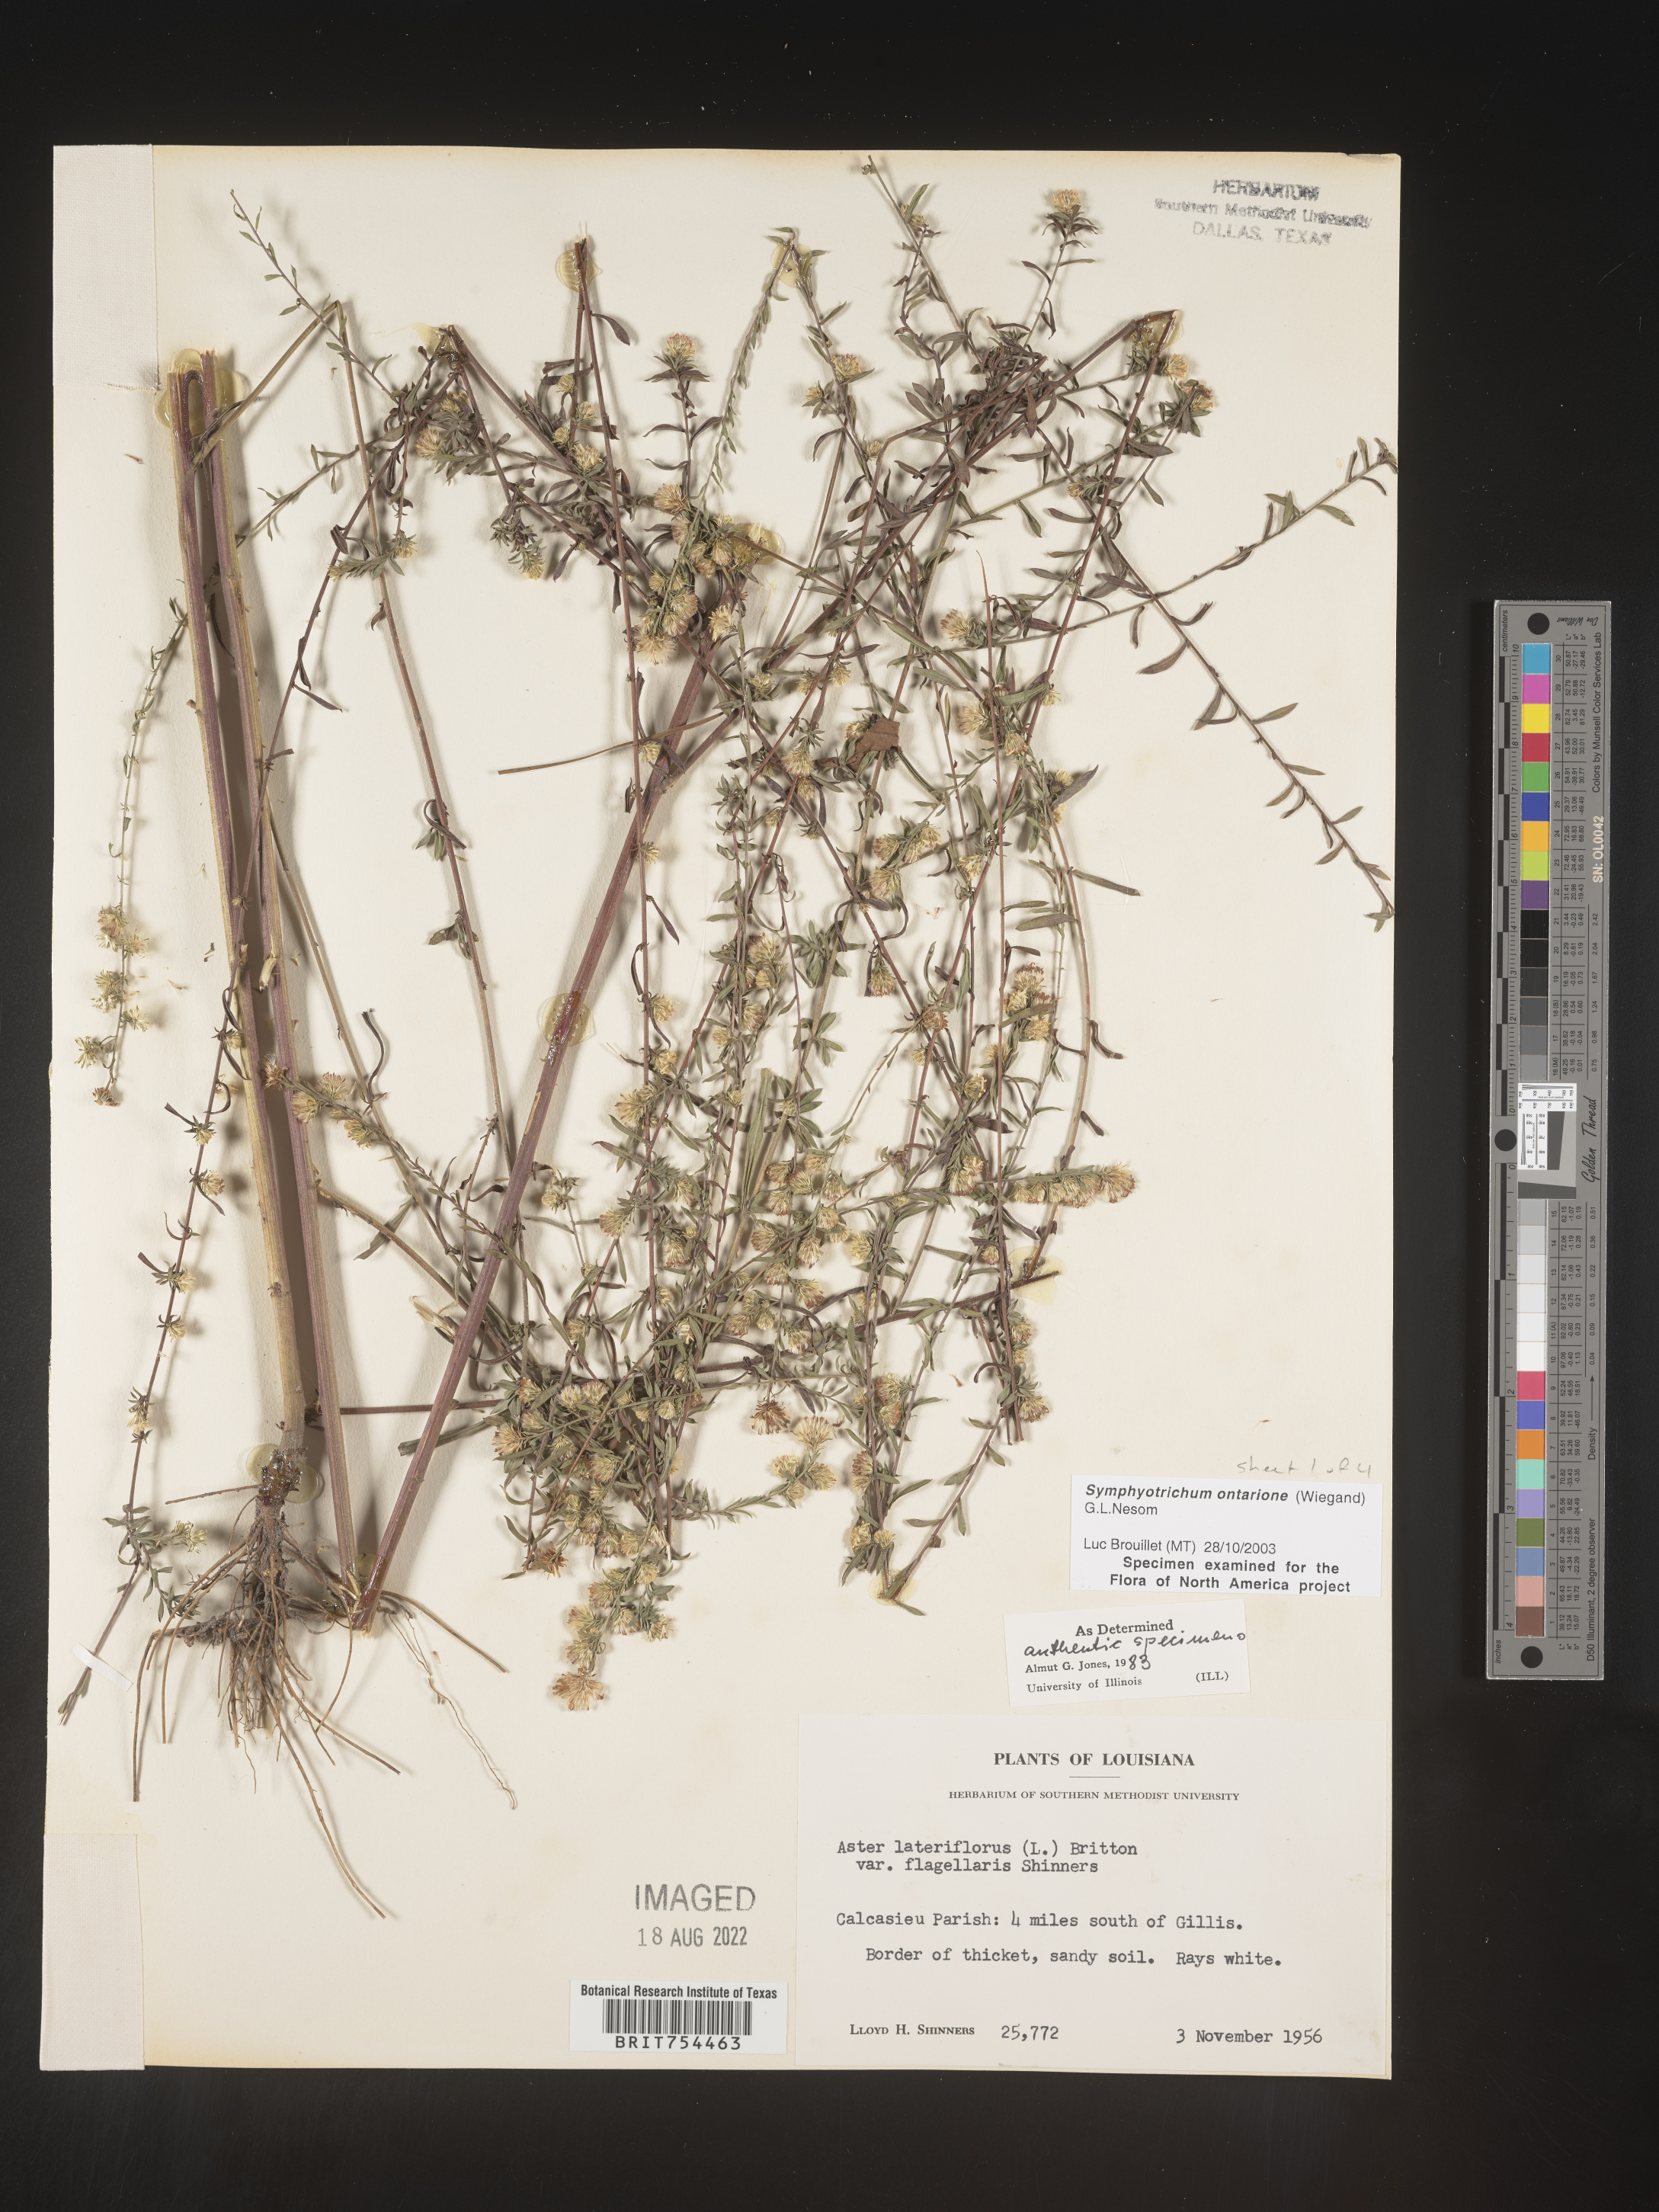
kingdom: Plantae
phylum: Tracheophyta
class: Magnoliopsida
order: Asterales
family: Asteraceae
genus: Symphyotrichum
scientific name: Symphyotrichum ontarionis
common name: Bottomland aster
